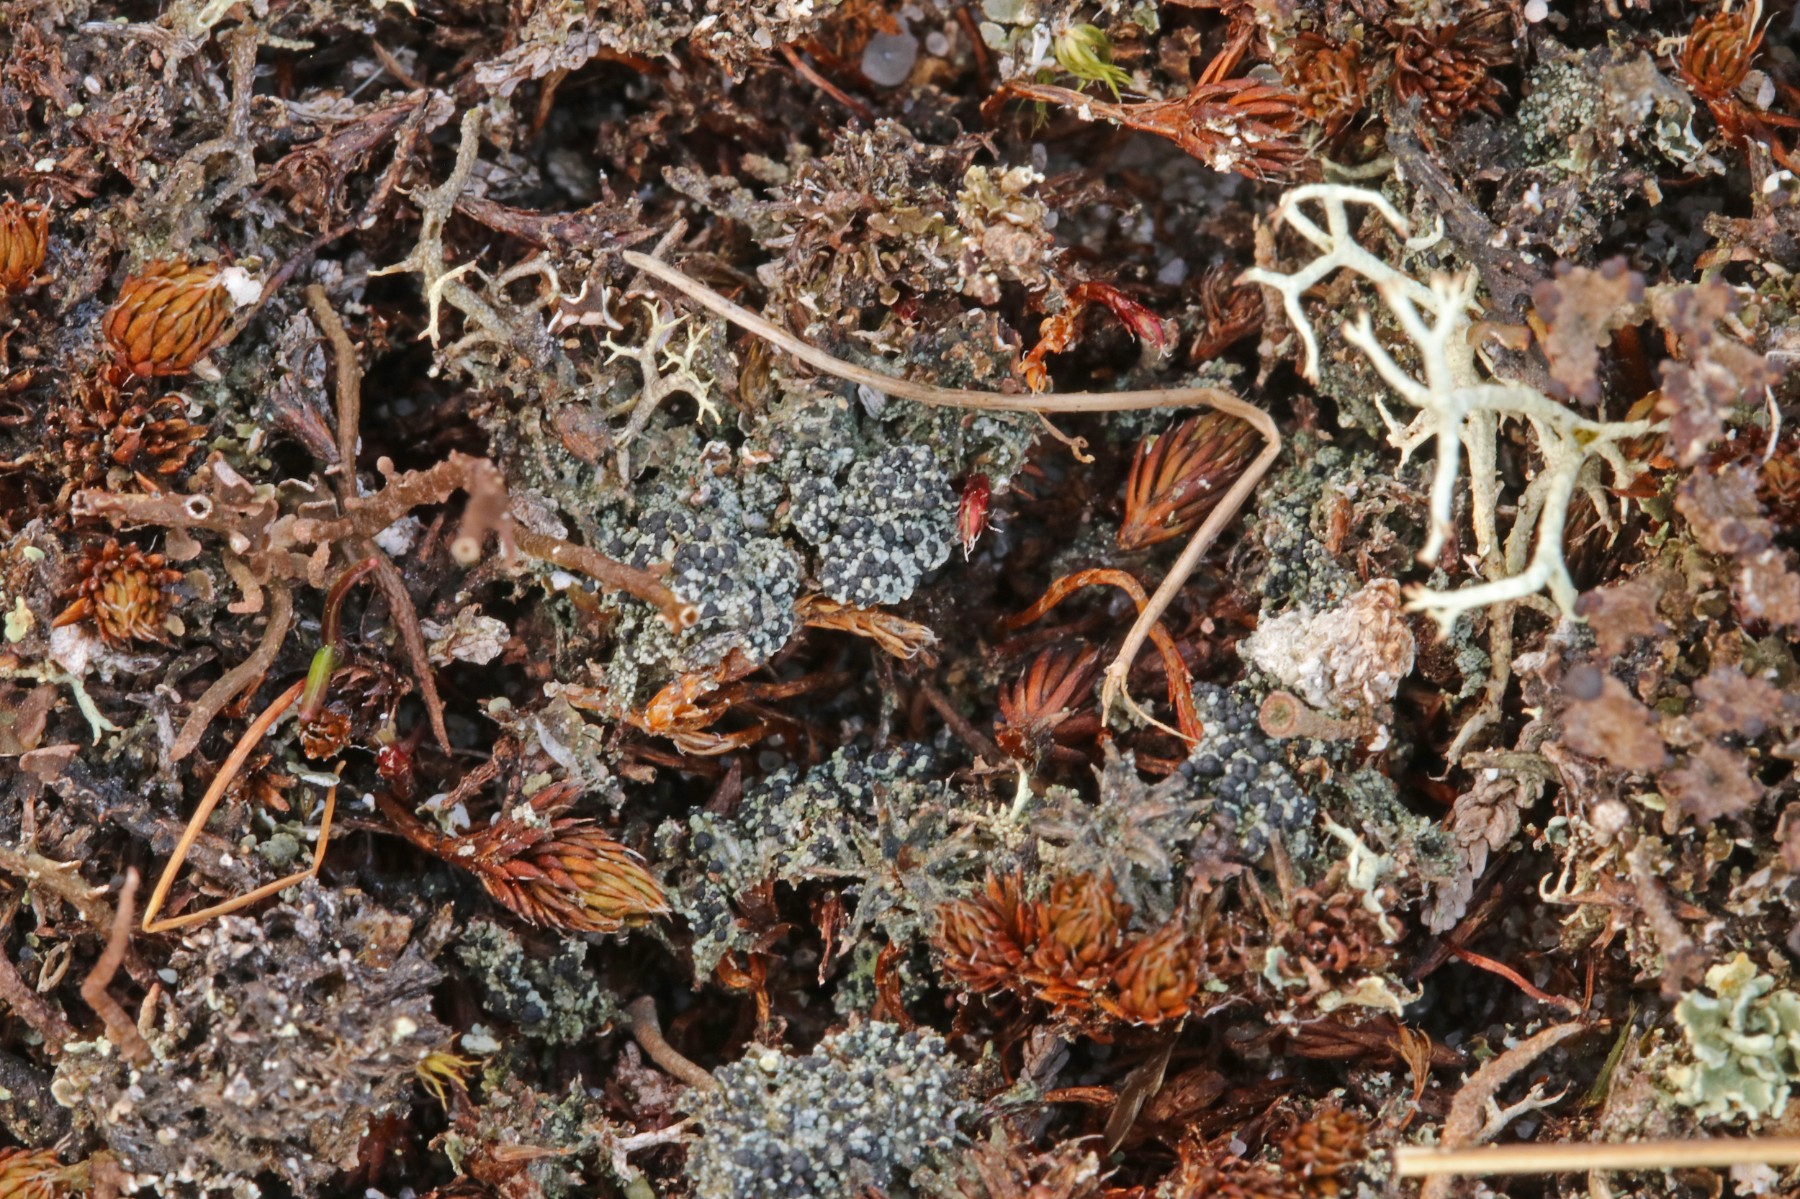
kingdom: Fungi
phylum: Ascomycota
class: Lecanoromycetes
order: Lecanorales
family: Byssolomataceae
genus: Micarea
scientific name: Micarea lignaria
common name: tørve-knaplav
